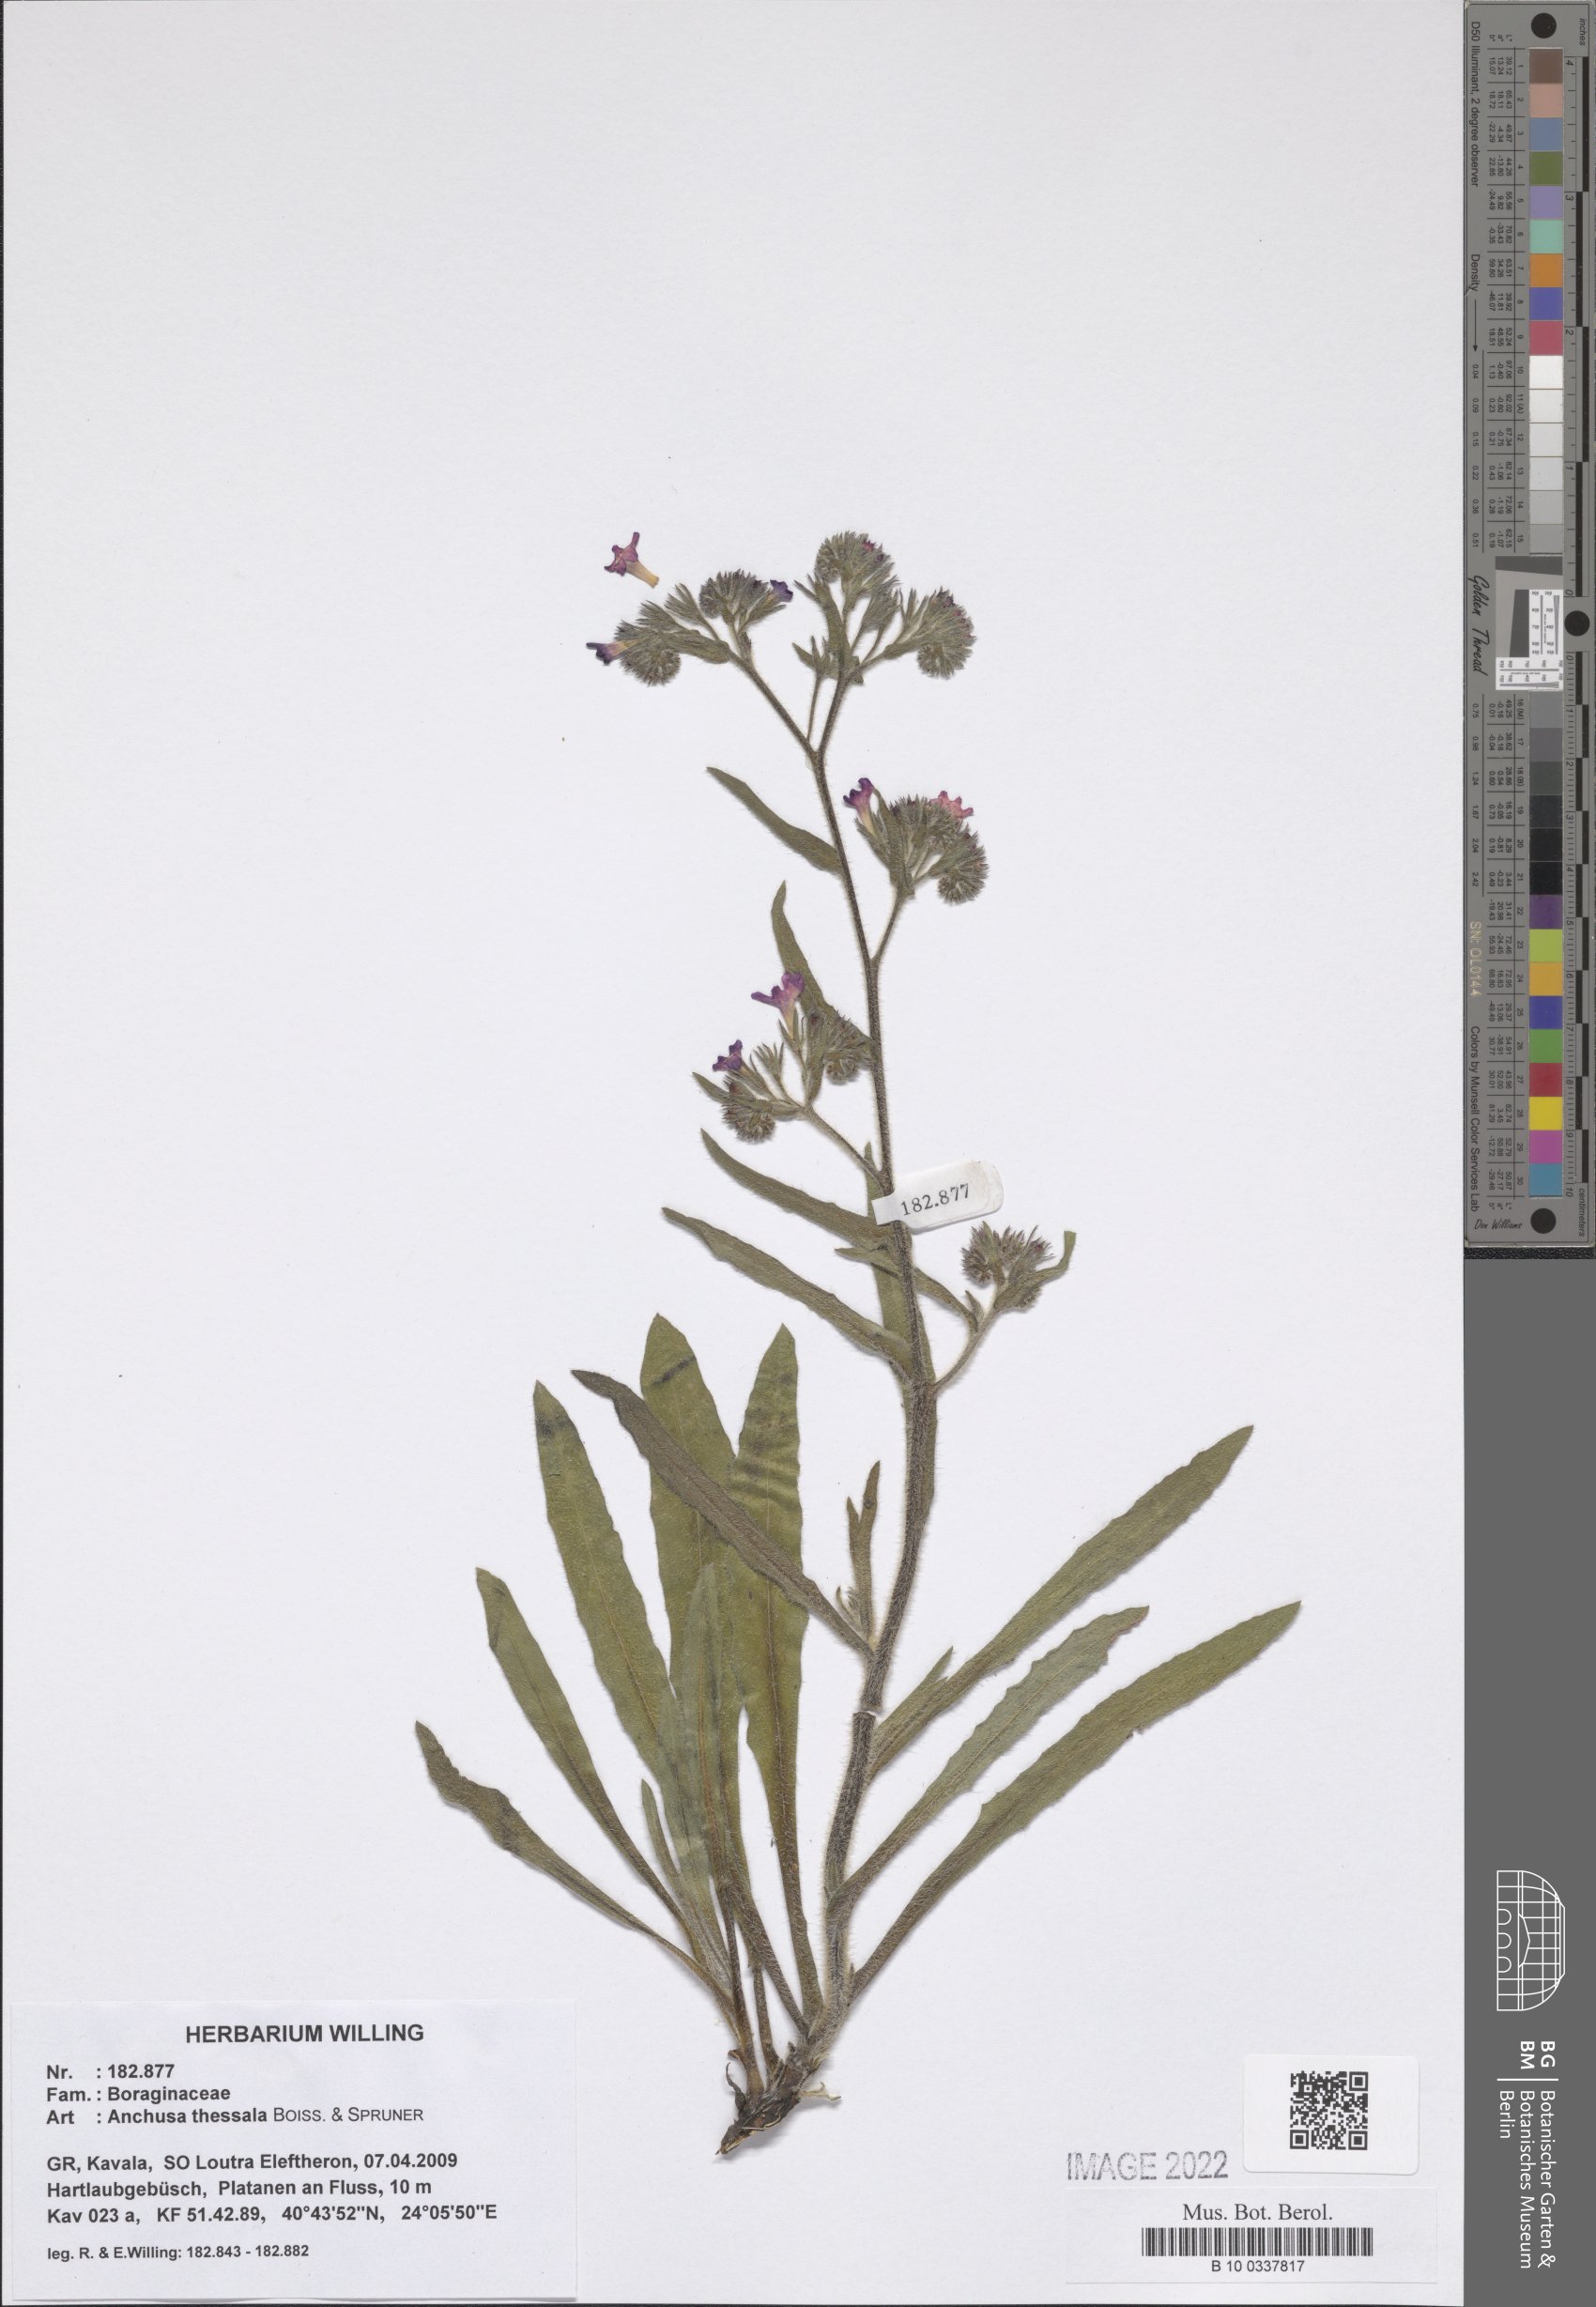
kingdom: Plantae
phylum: Tracheophyta
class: Magnoliopsida
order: Boraginales
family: Boraginaceae
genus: Anchusa
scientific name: Anchusa thessala
